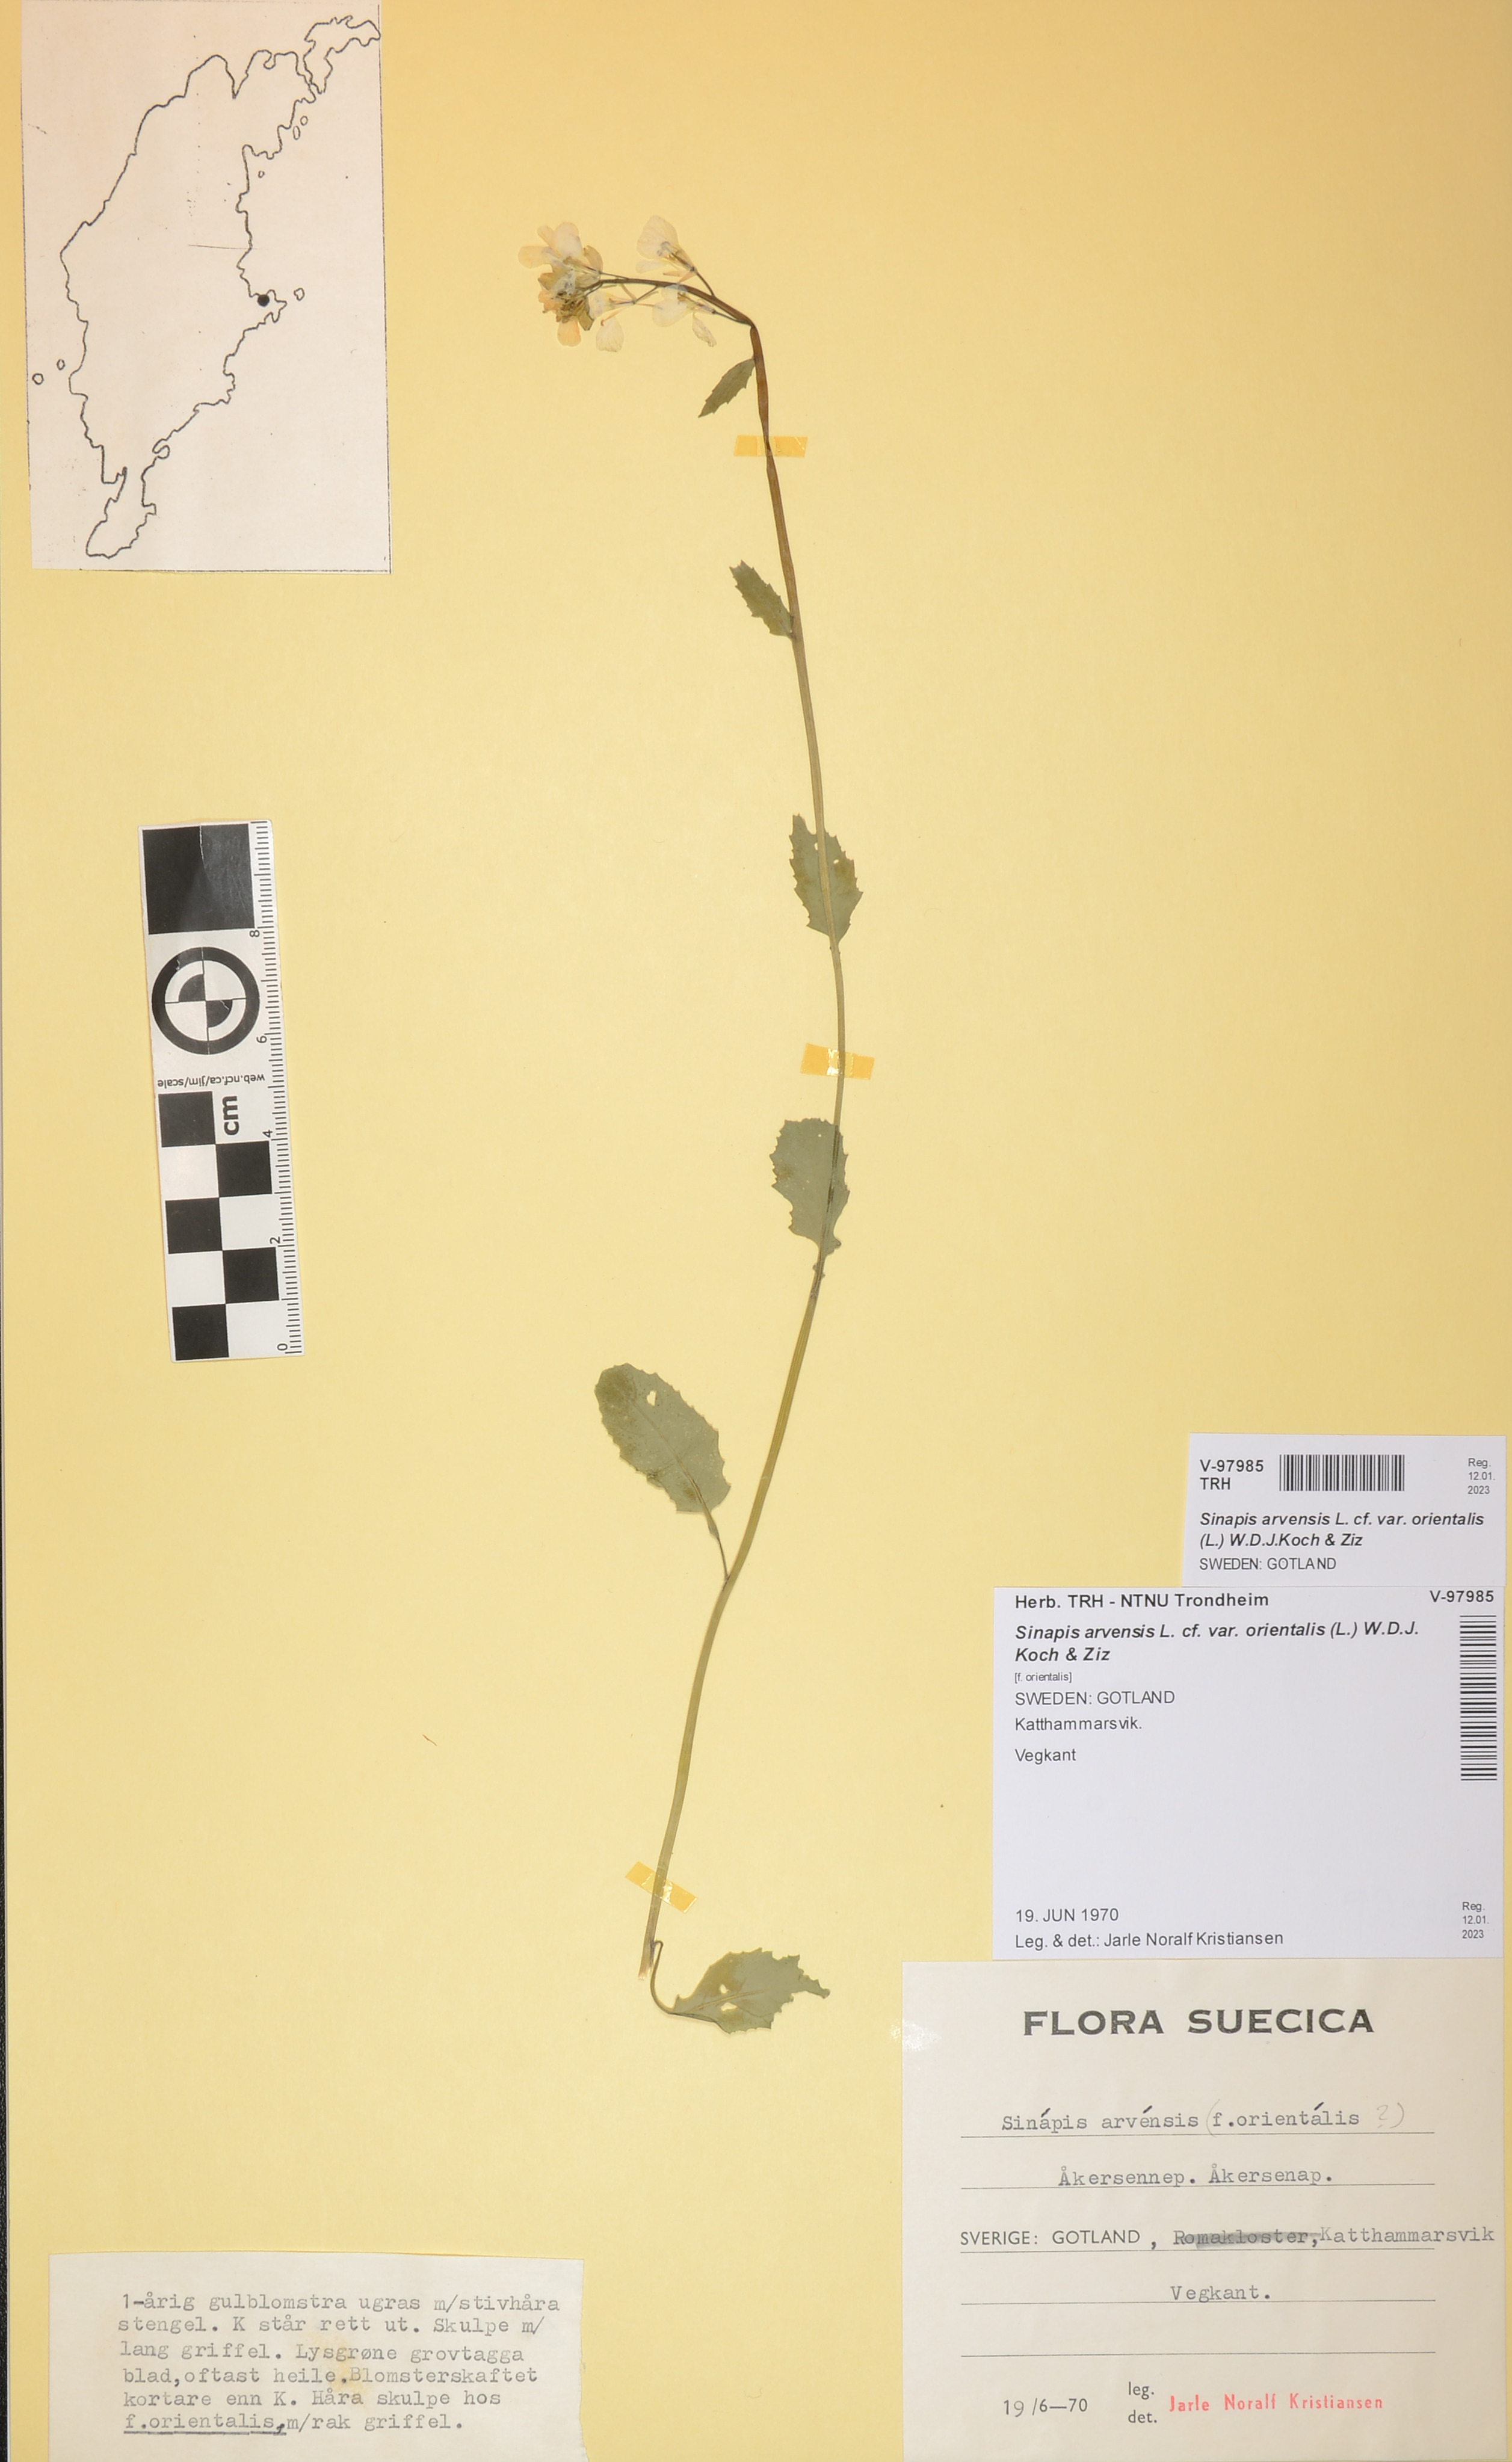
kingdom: Plantae
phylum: Tracheophyta
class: Magnoliopsida
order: Brassicales
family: Brassicaceae
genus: Sinapis
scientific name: Sinapis arvensis
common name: Charlock
